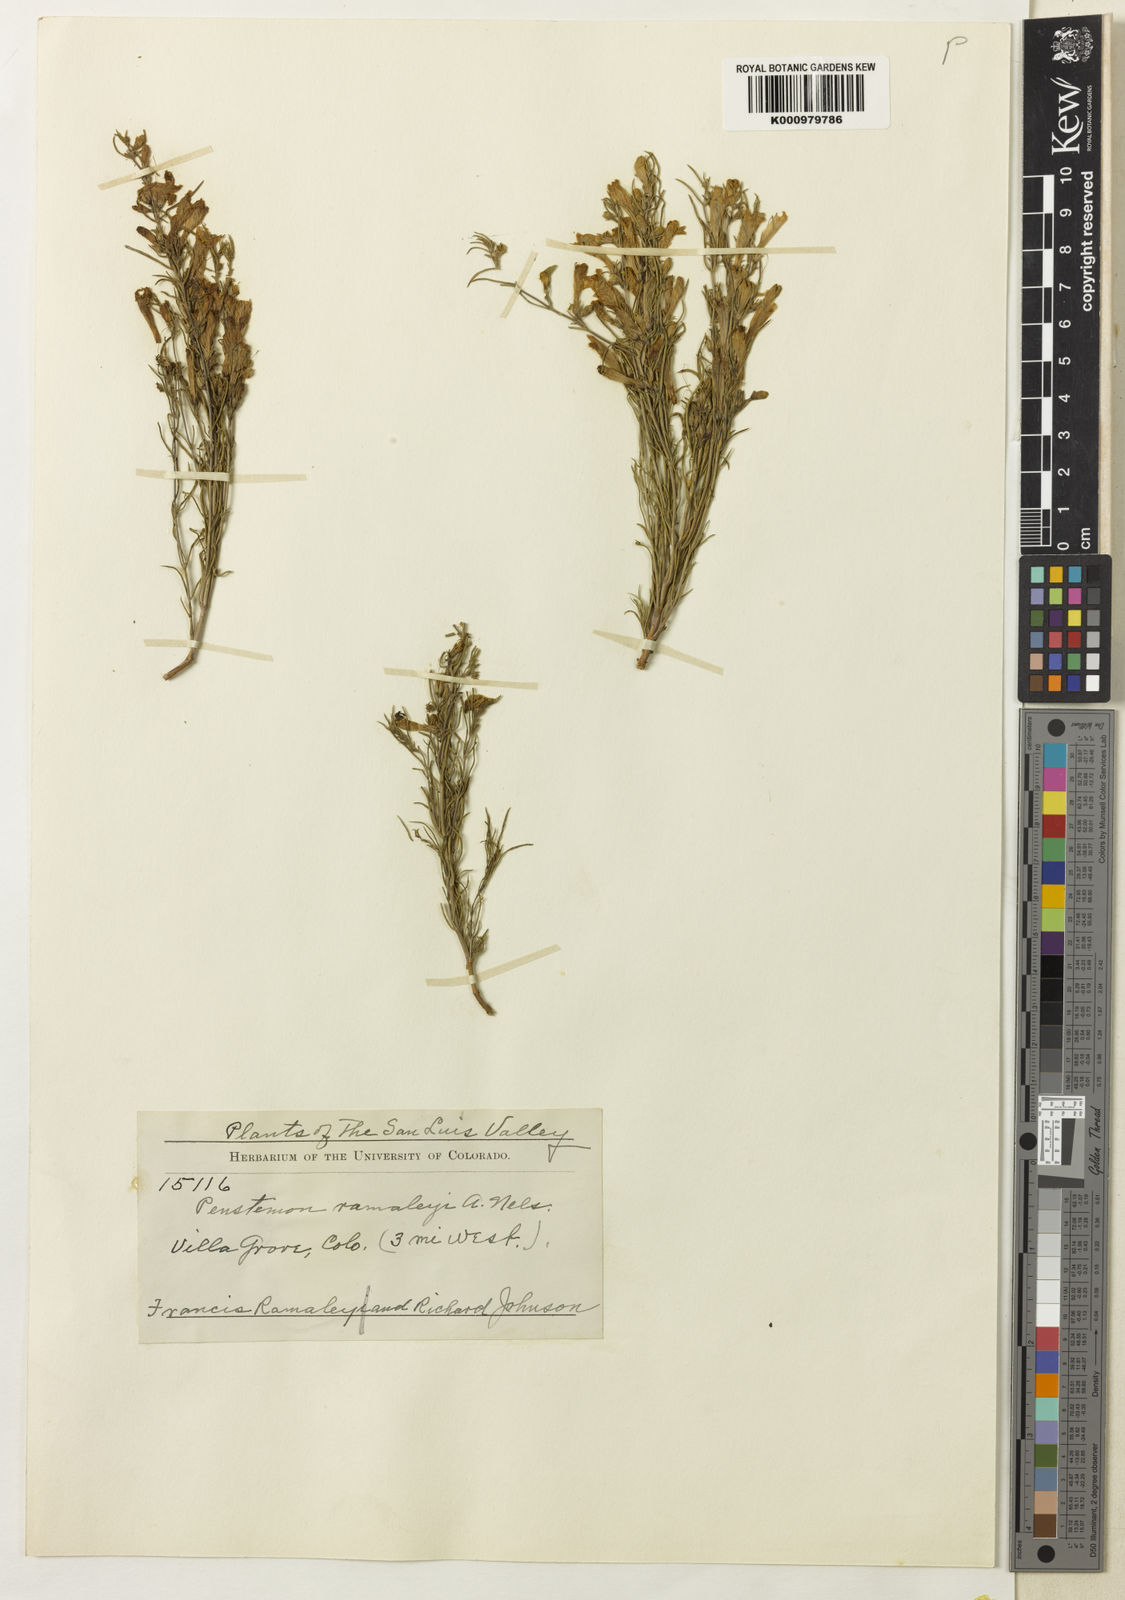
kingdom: Plantae
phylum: Tracheophyta
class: Magnoliopsida
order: Lamiales
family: Plantaginaceae
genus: Penstemon
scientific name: Penstemon crandallii
